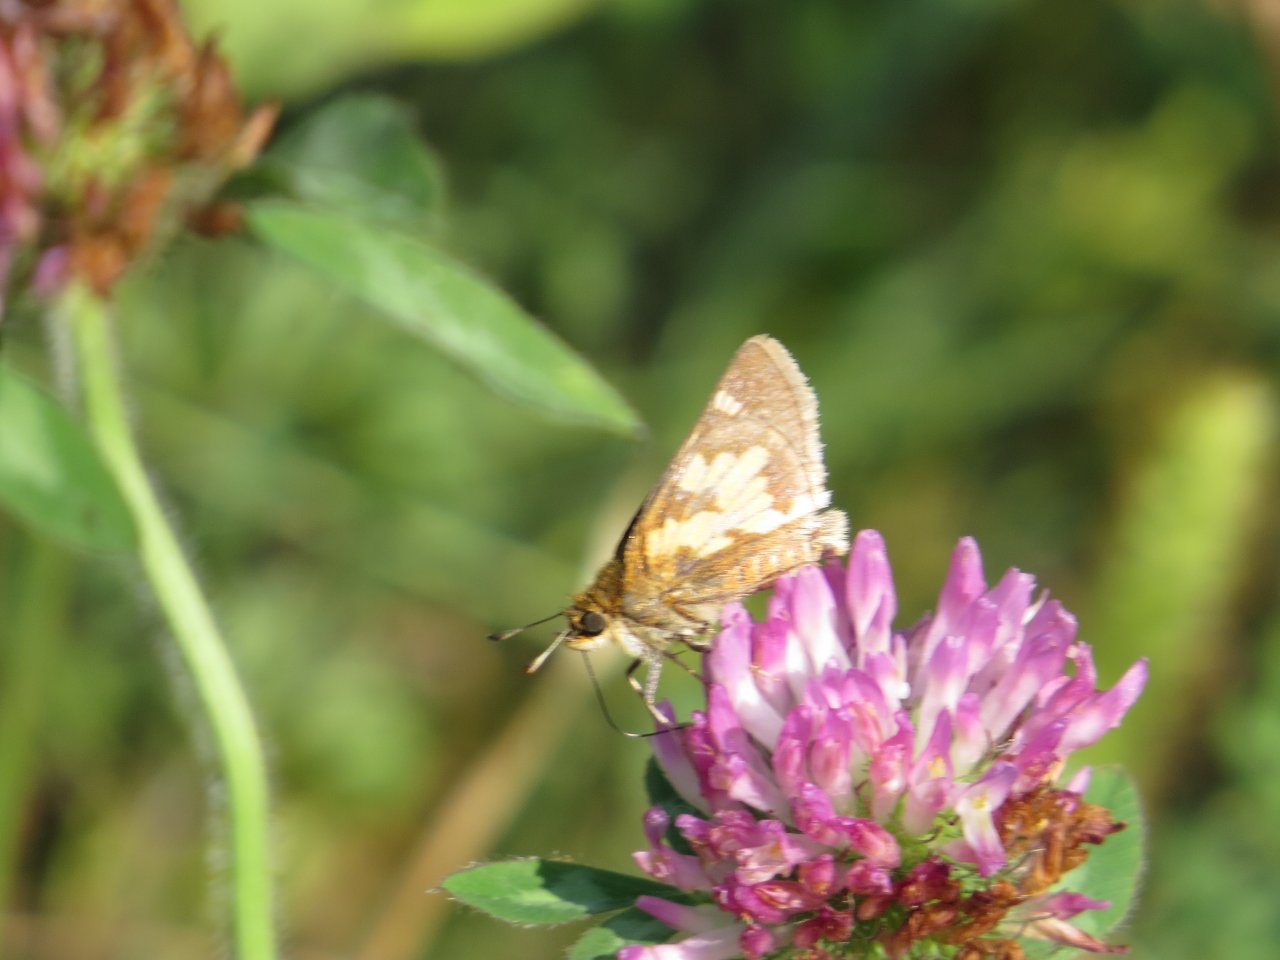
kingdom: Animalia
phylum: Arthropoda
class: Insecta
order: Lepidoptera
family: Hesperiidae
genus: Polites
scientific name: Polites coras
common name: Peck's Skipper
